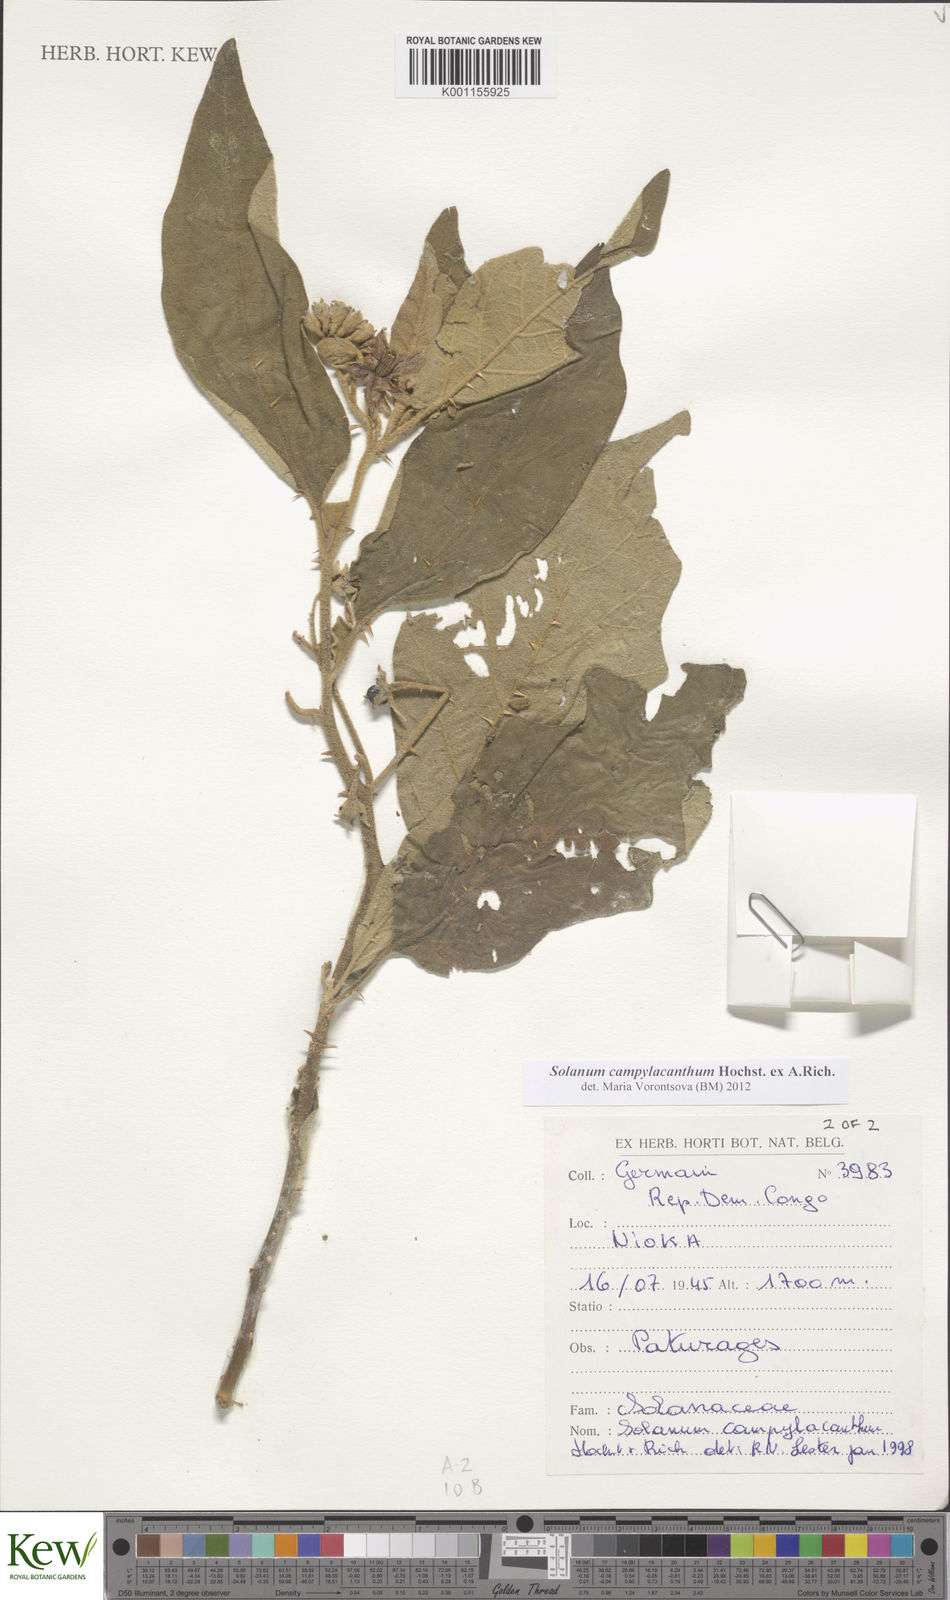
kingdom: Plantae
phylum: Tracheophyta
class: Magnoliopsida
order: Solanales
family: Solanaceae
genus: Solanum
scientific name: Solanum campylacanthum
